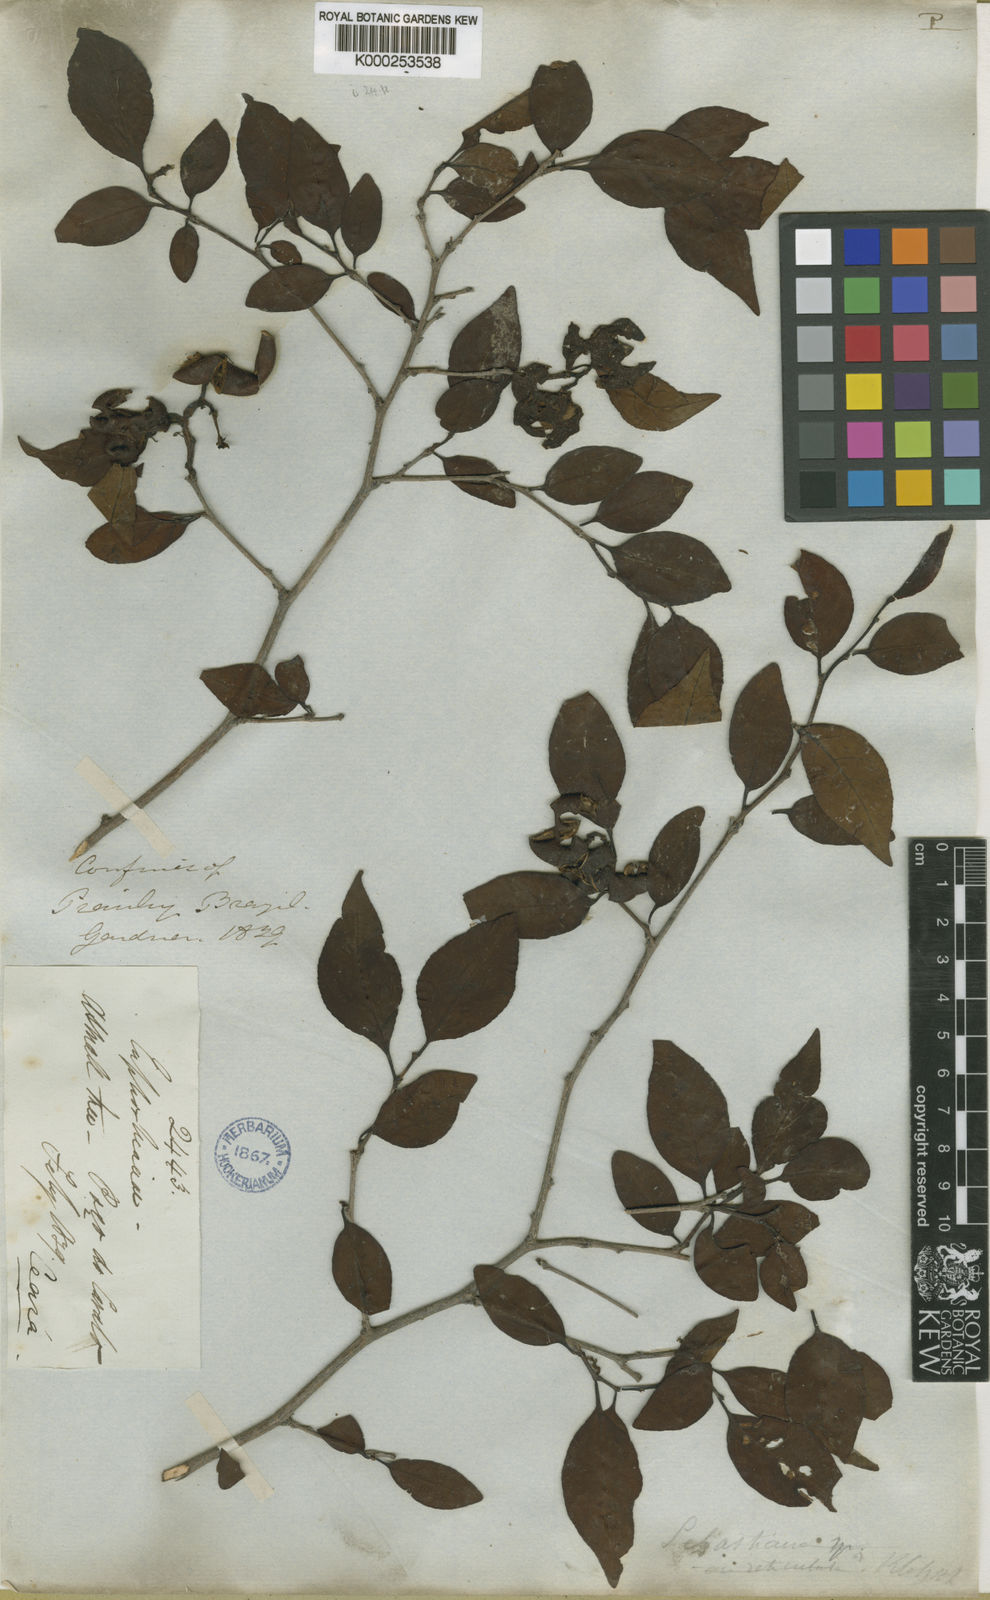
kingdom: Plantae
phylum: Tracheophyta
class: Magnoliopsida
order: Malpighiales
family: Euphorbiaceae
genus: Sebastiania
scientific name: Sebastiania
